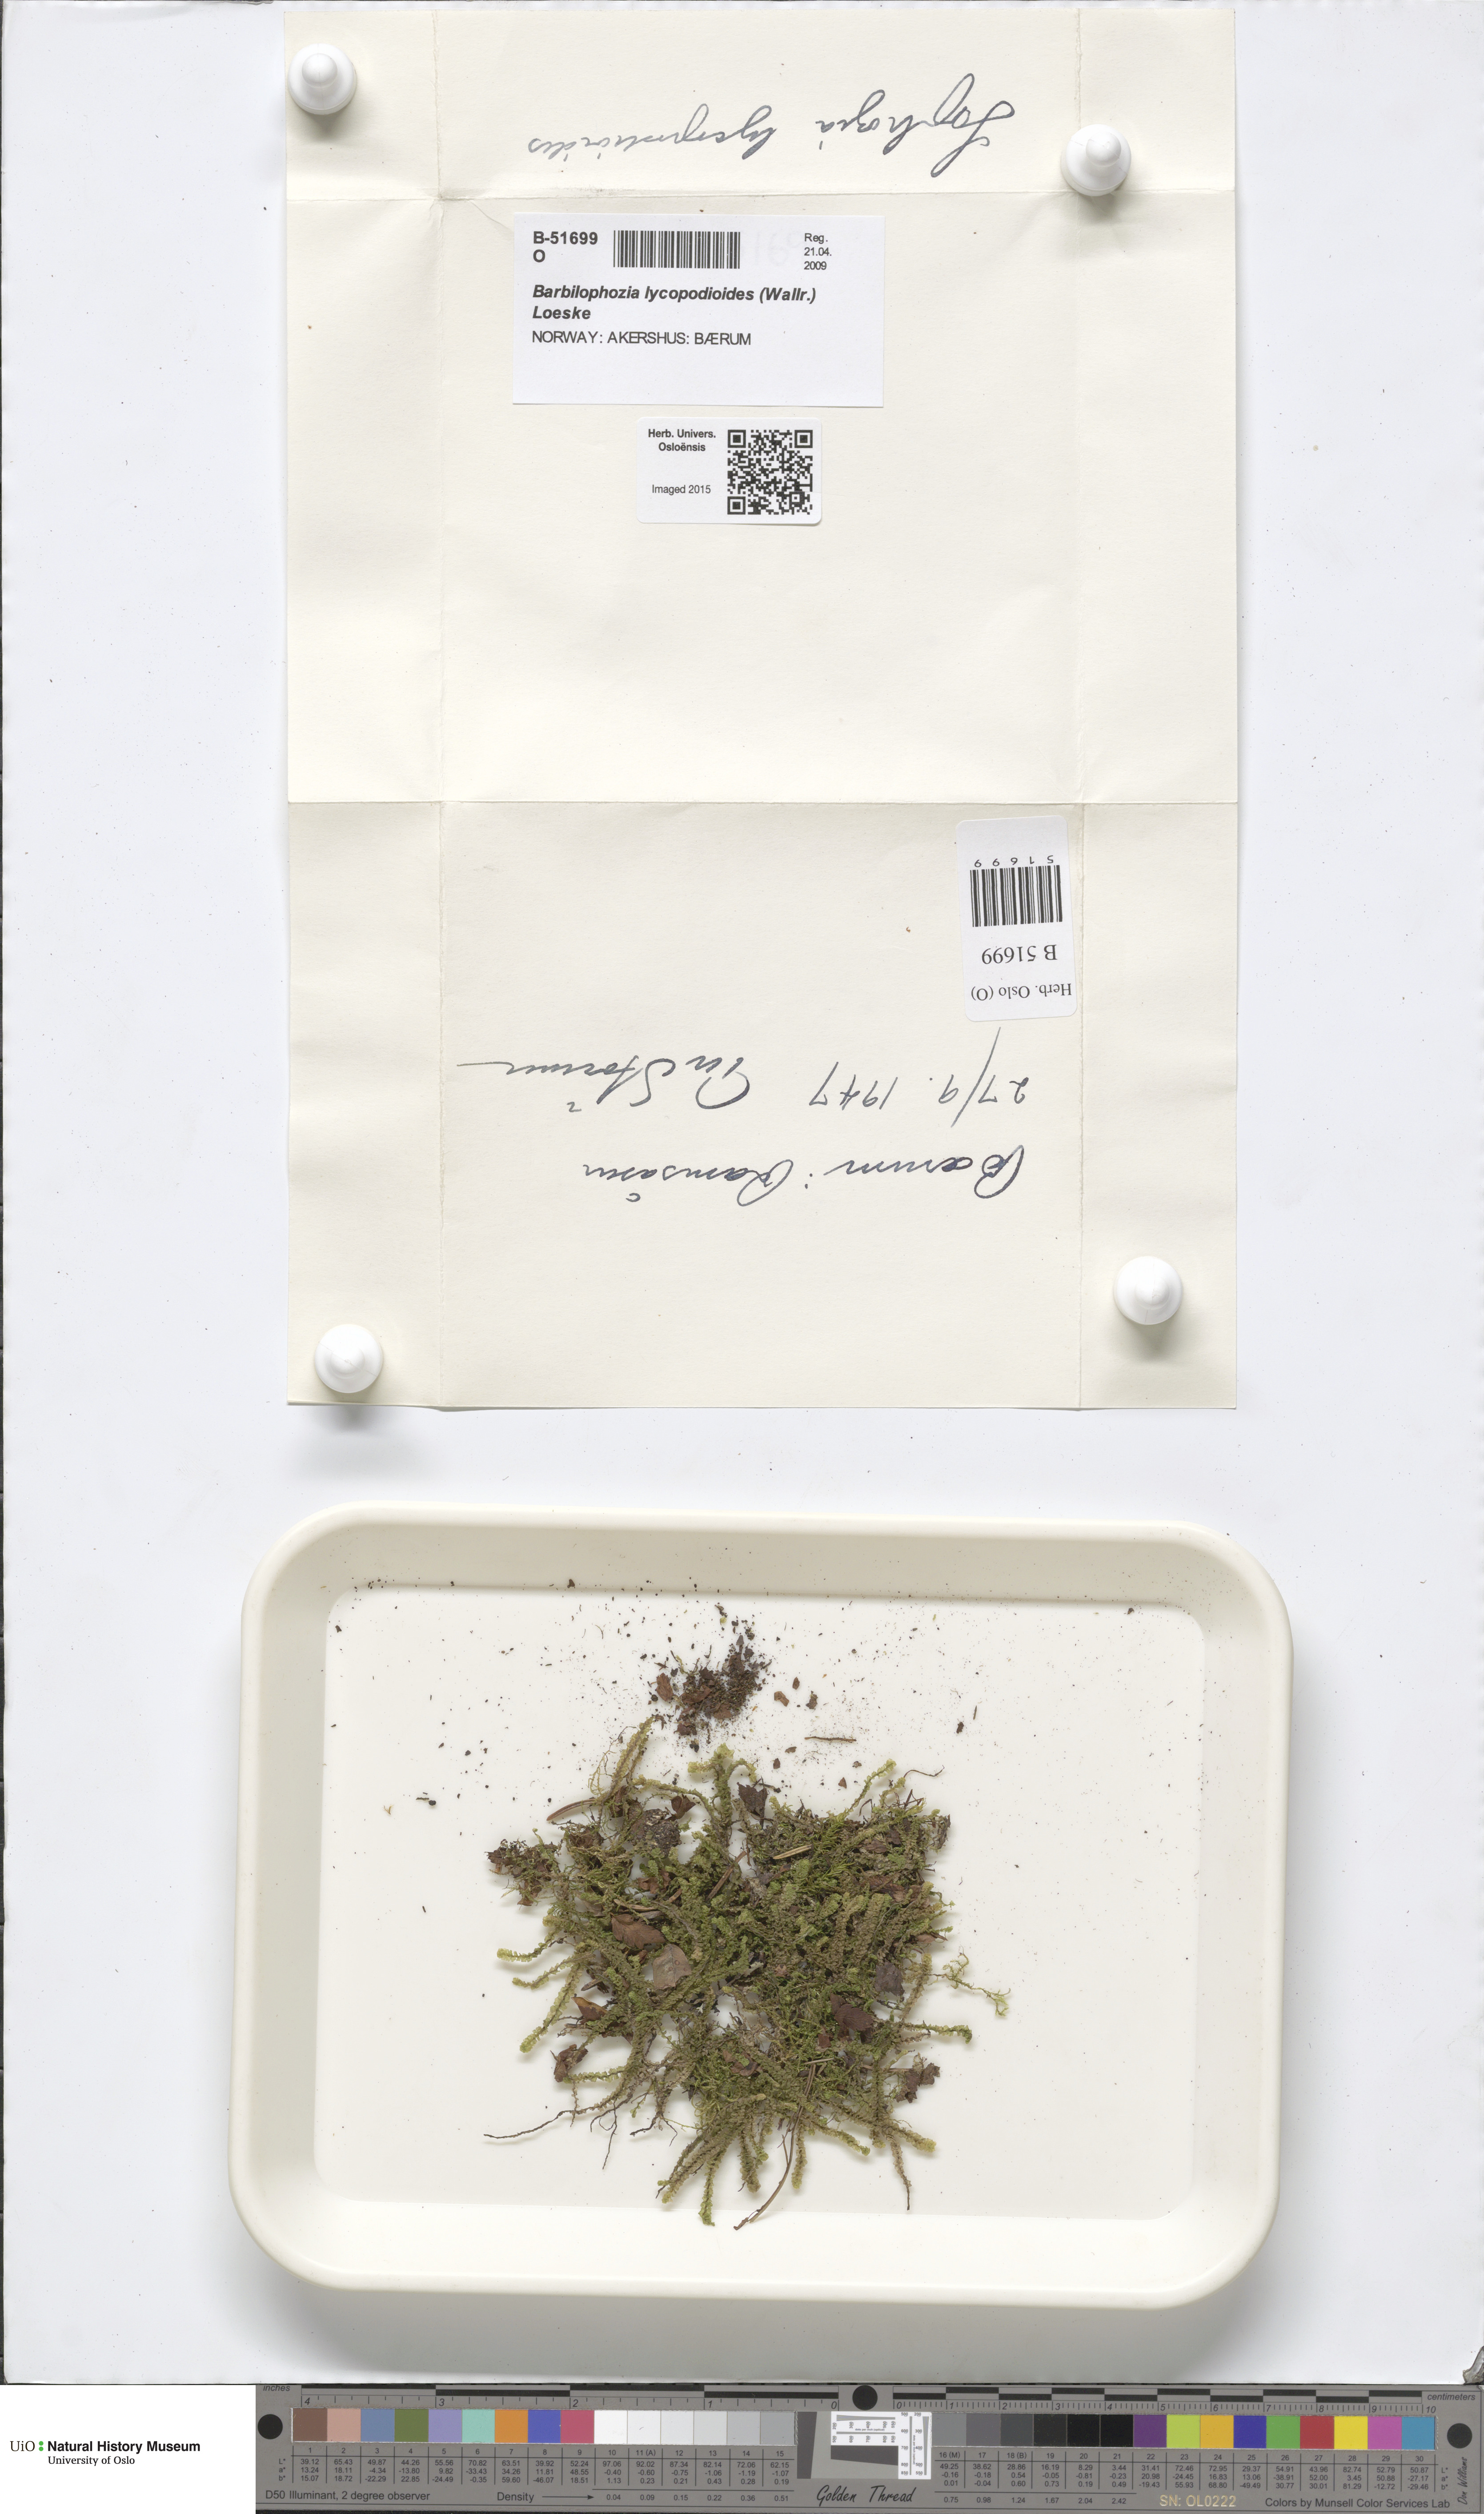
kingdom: Plantae
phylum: Marchantiophyta
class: Jungermanniopsida
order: Jungermanniales
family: Anastrophyllaceae
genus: Barbilophozia
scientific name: Barbilophozia lycopodioides
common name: Greater pawwort
